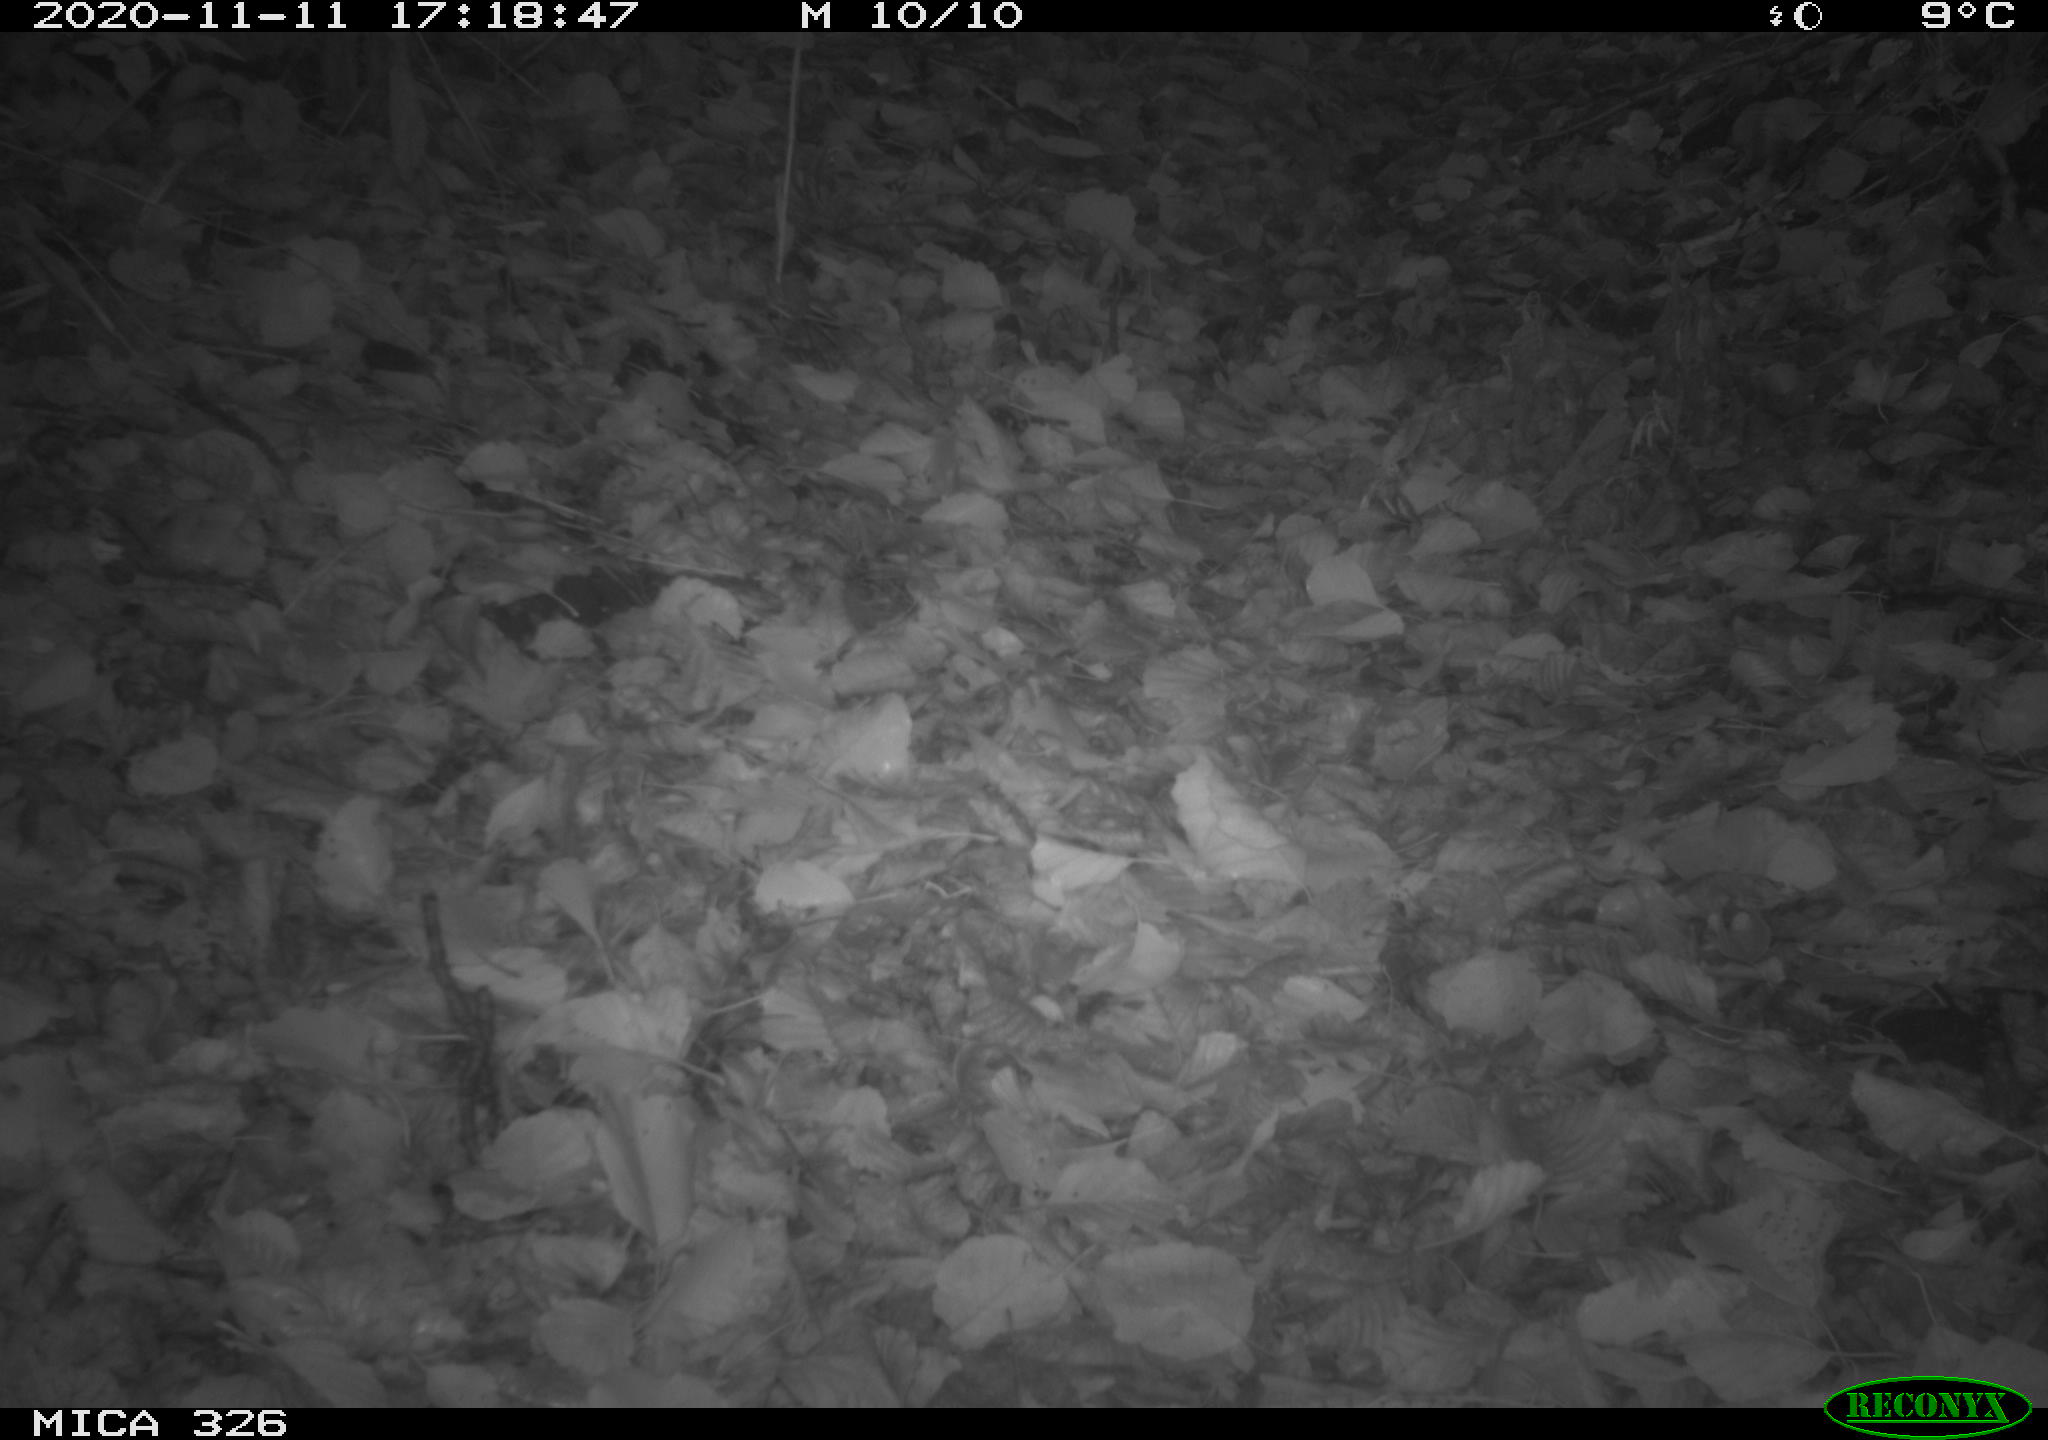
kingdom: Animalia
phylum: Chordata
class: Aves
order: Charadriiformes
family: Scolopacidae
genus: Scolopax
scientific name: Scolopax rusticola
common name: Eurasian woodcock
